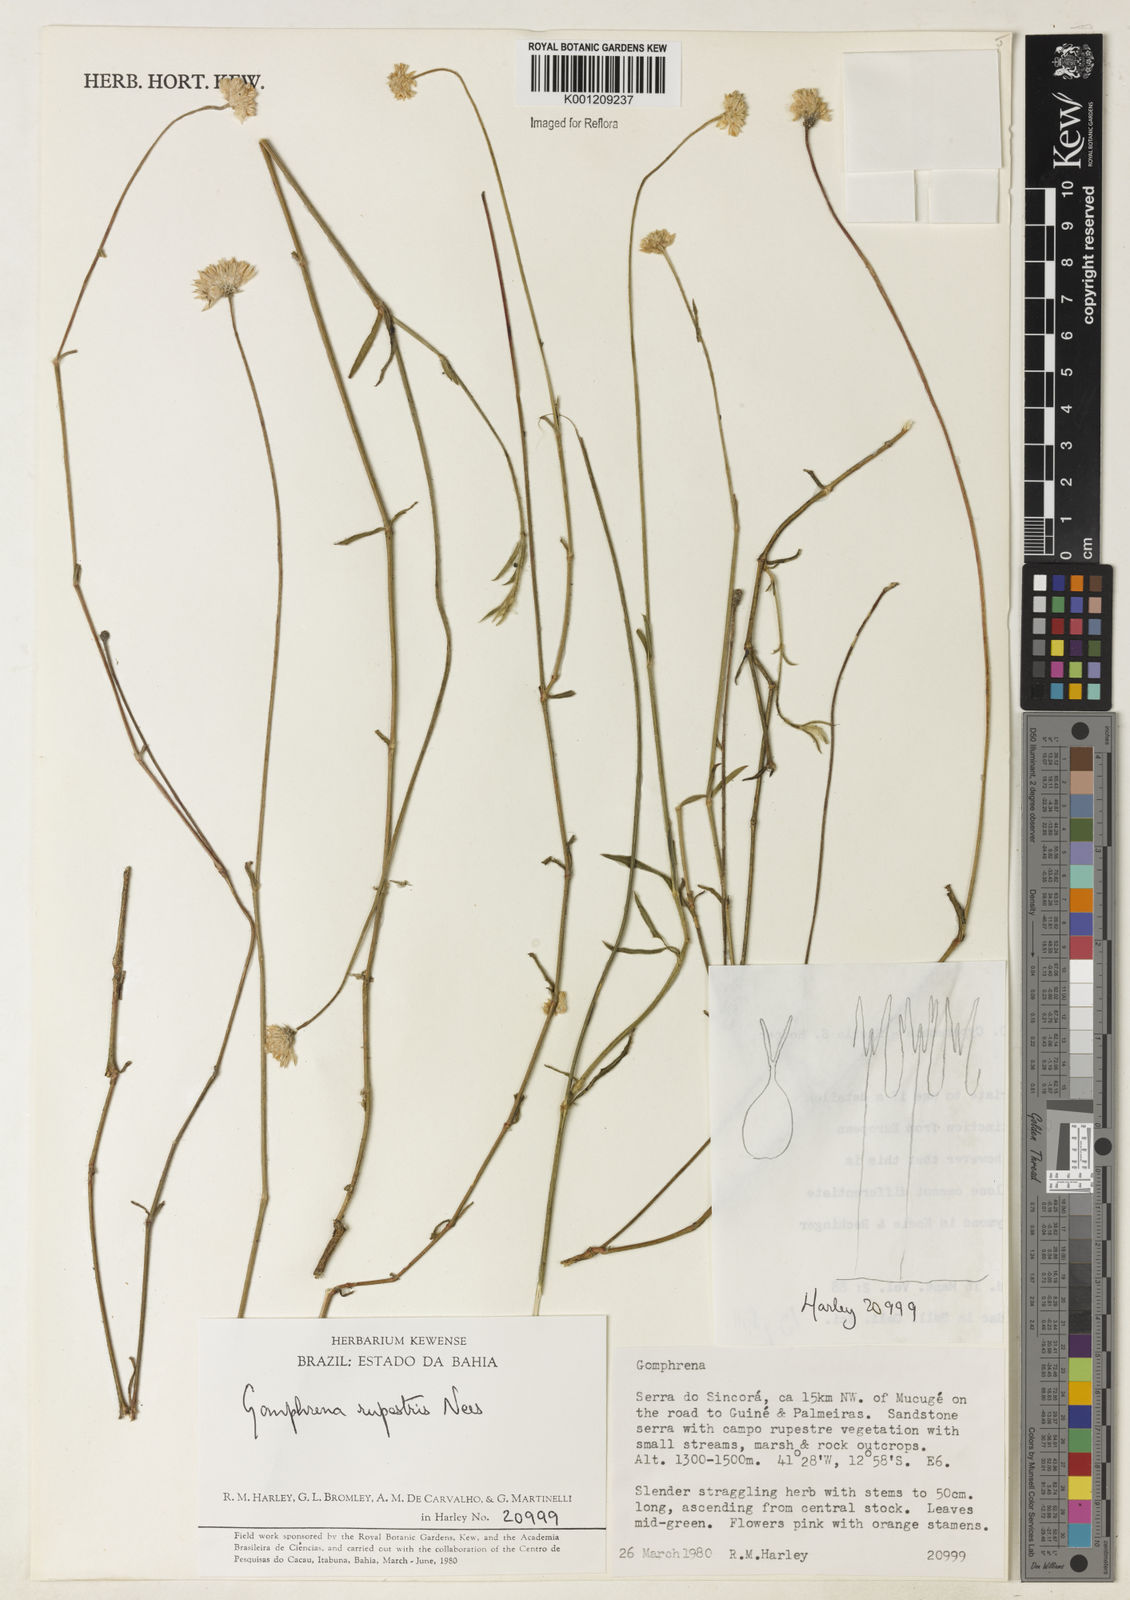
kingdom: Plantae
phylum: Tracheophyta
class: Magnoliopsida
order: Caryophyllales
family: Amaranthaceae
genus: Gomphrena
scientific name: Gomphrena rupestris
